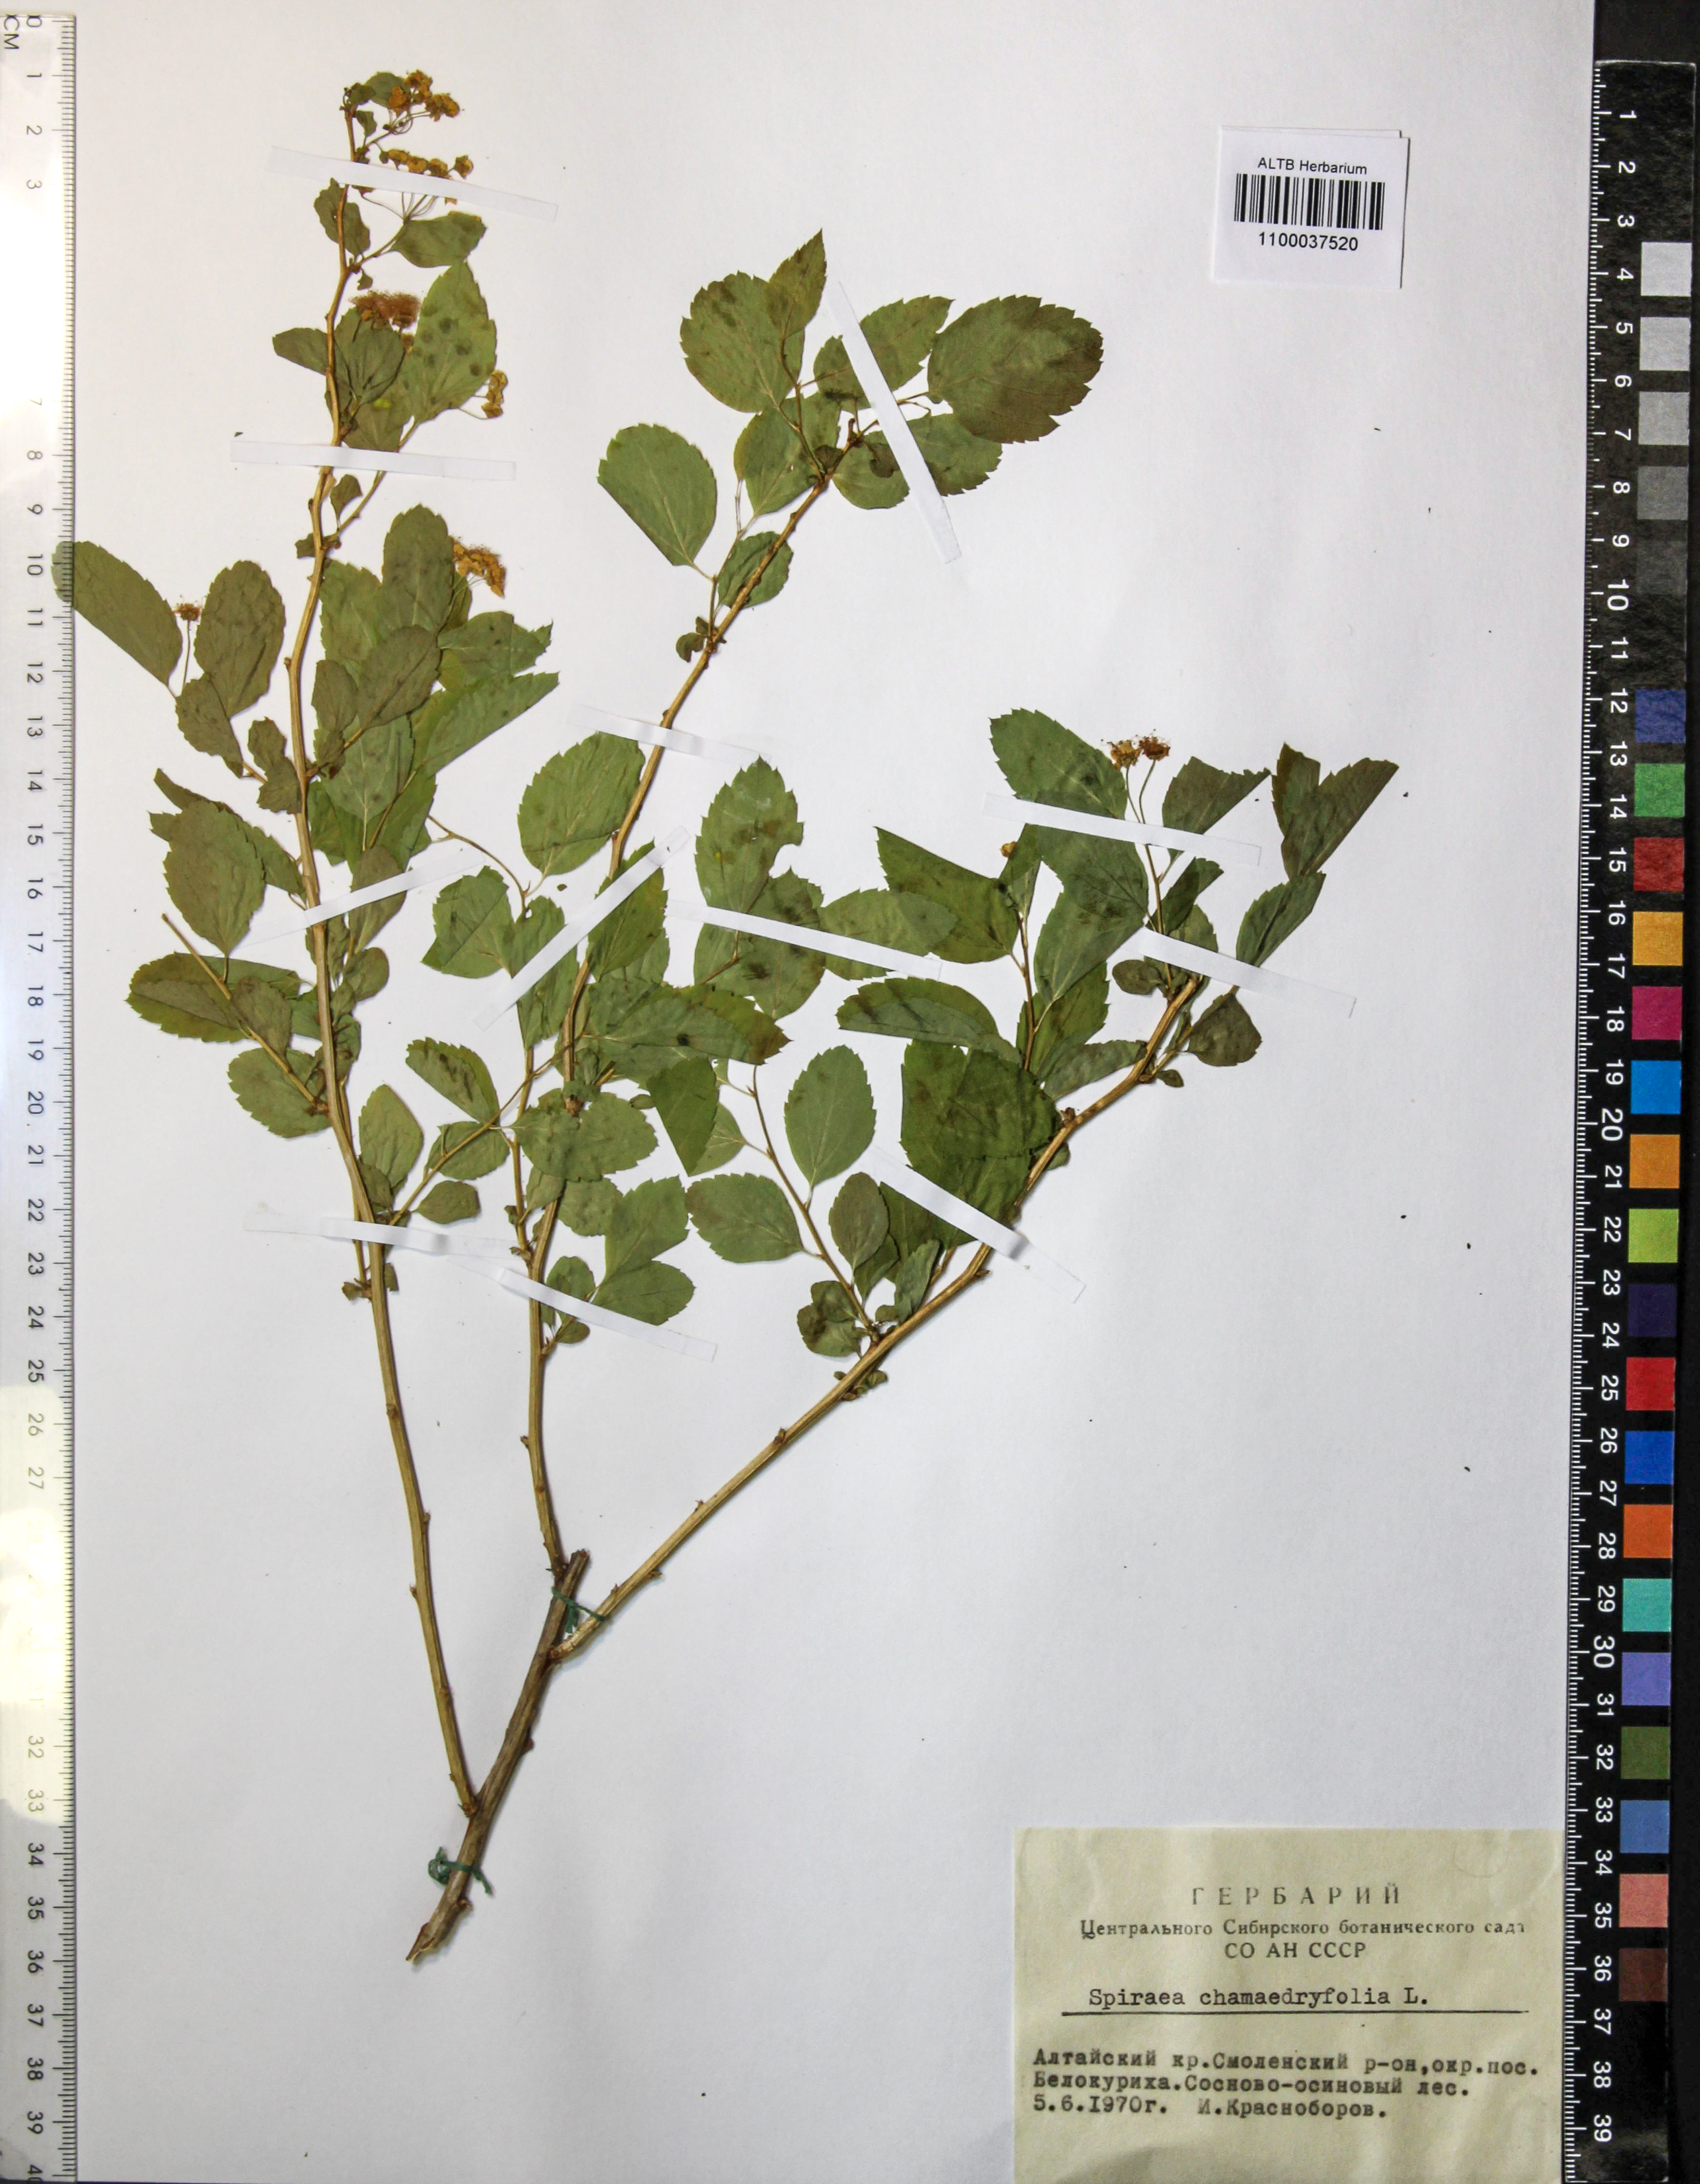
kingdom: Plantae
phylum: Tracheophyta
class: Magnoliopsida
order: Rosales
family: Rosaceae
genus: Spiraea
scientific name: Spiraea chamaedryfolia
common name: Elm-leaved spiraea
